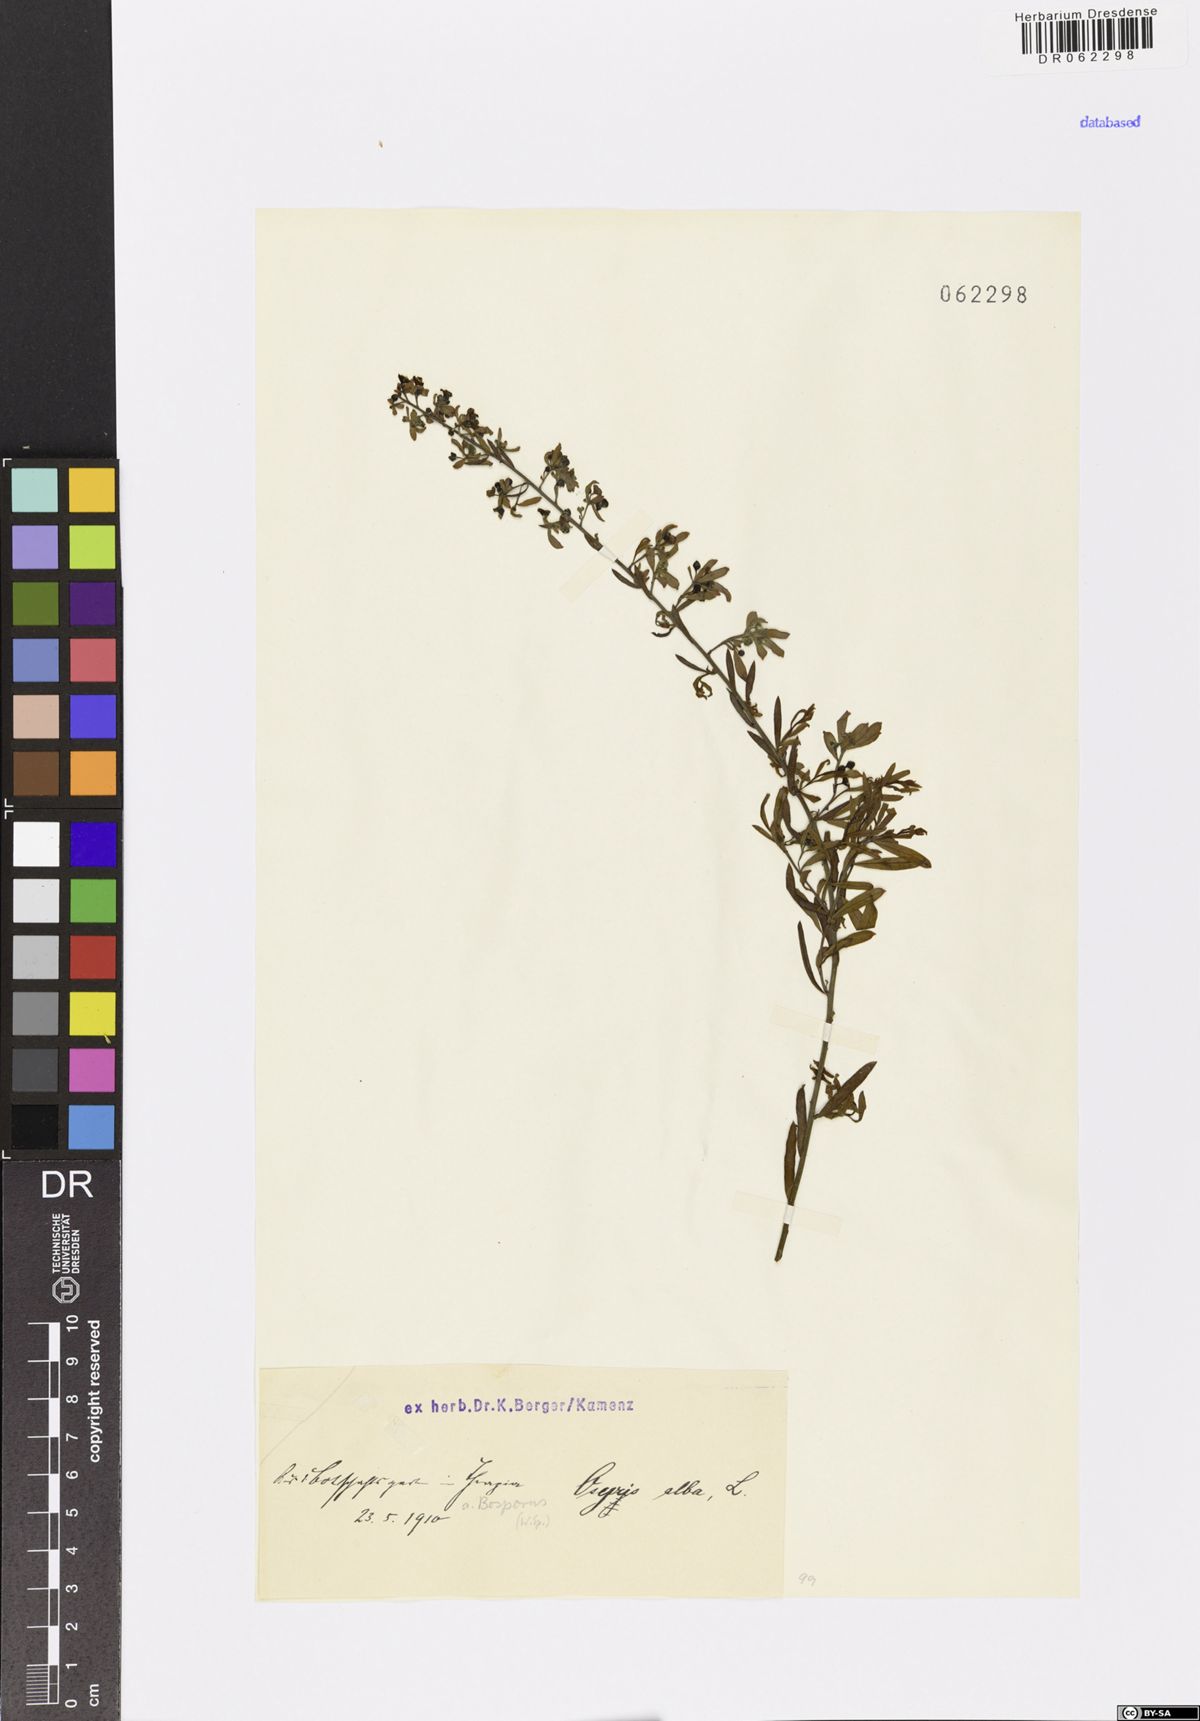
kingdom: Plantae
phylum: Tracheophyta
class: Magnoliopsida
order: Santalales
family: Santalaceae
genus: Osyris
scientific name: Osyris alba
